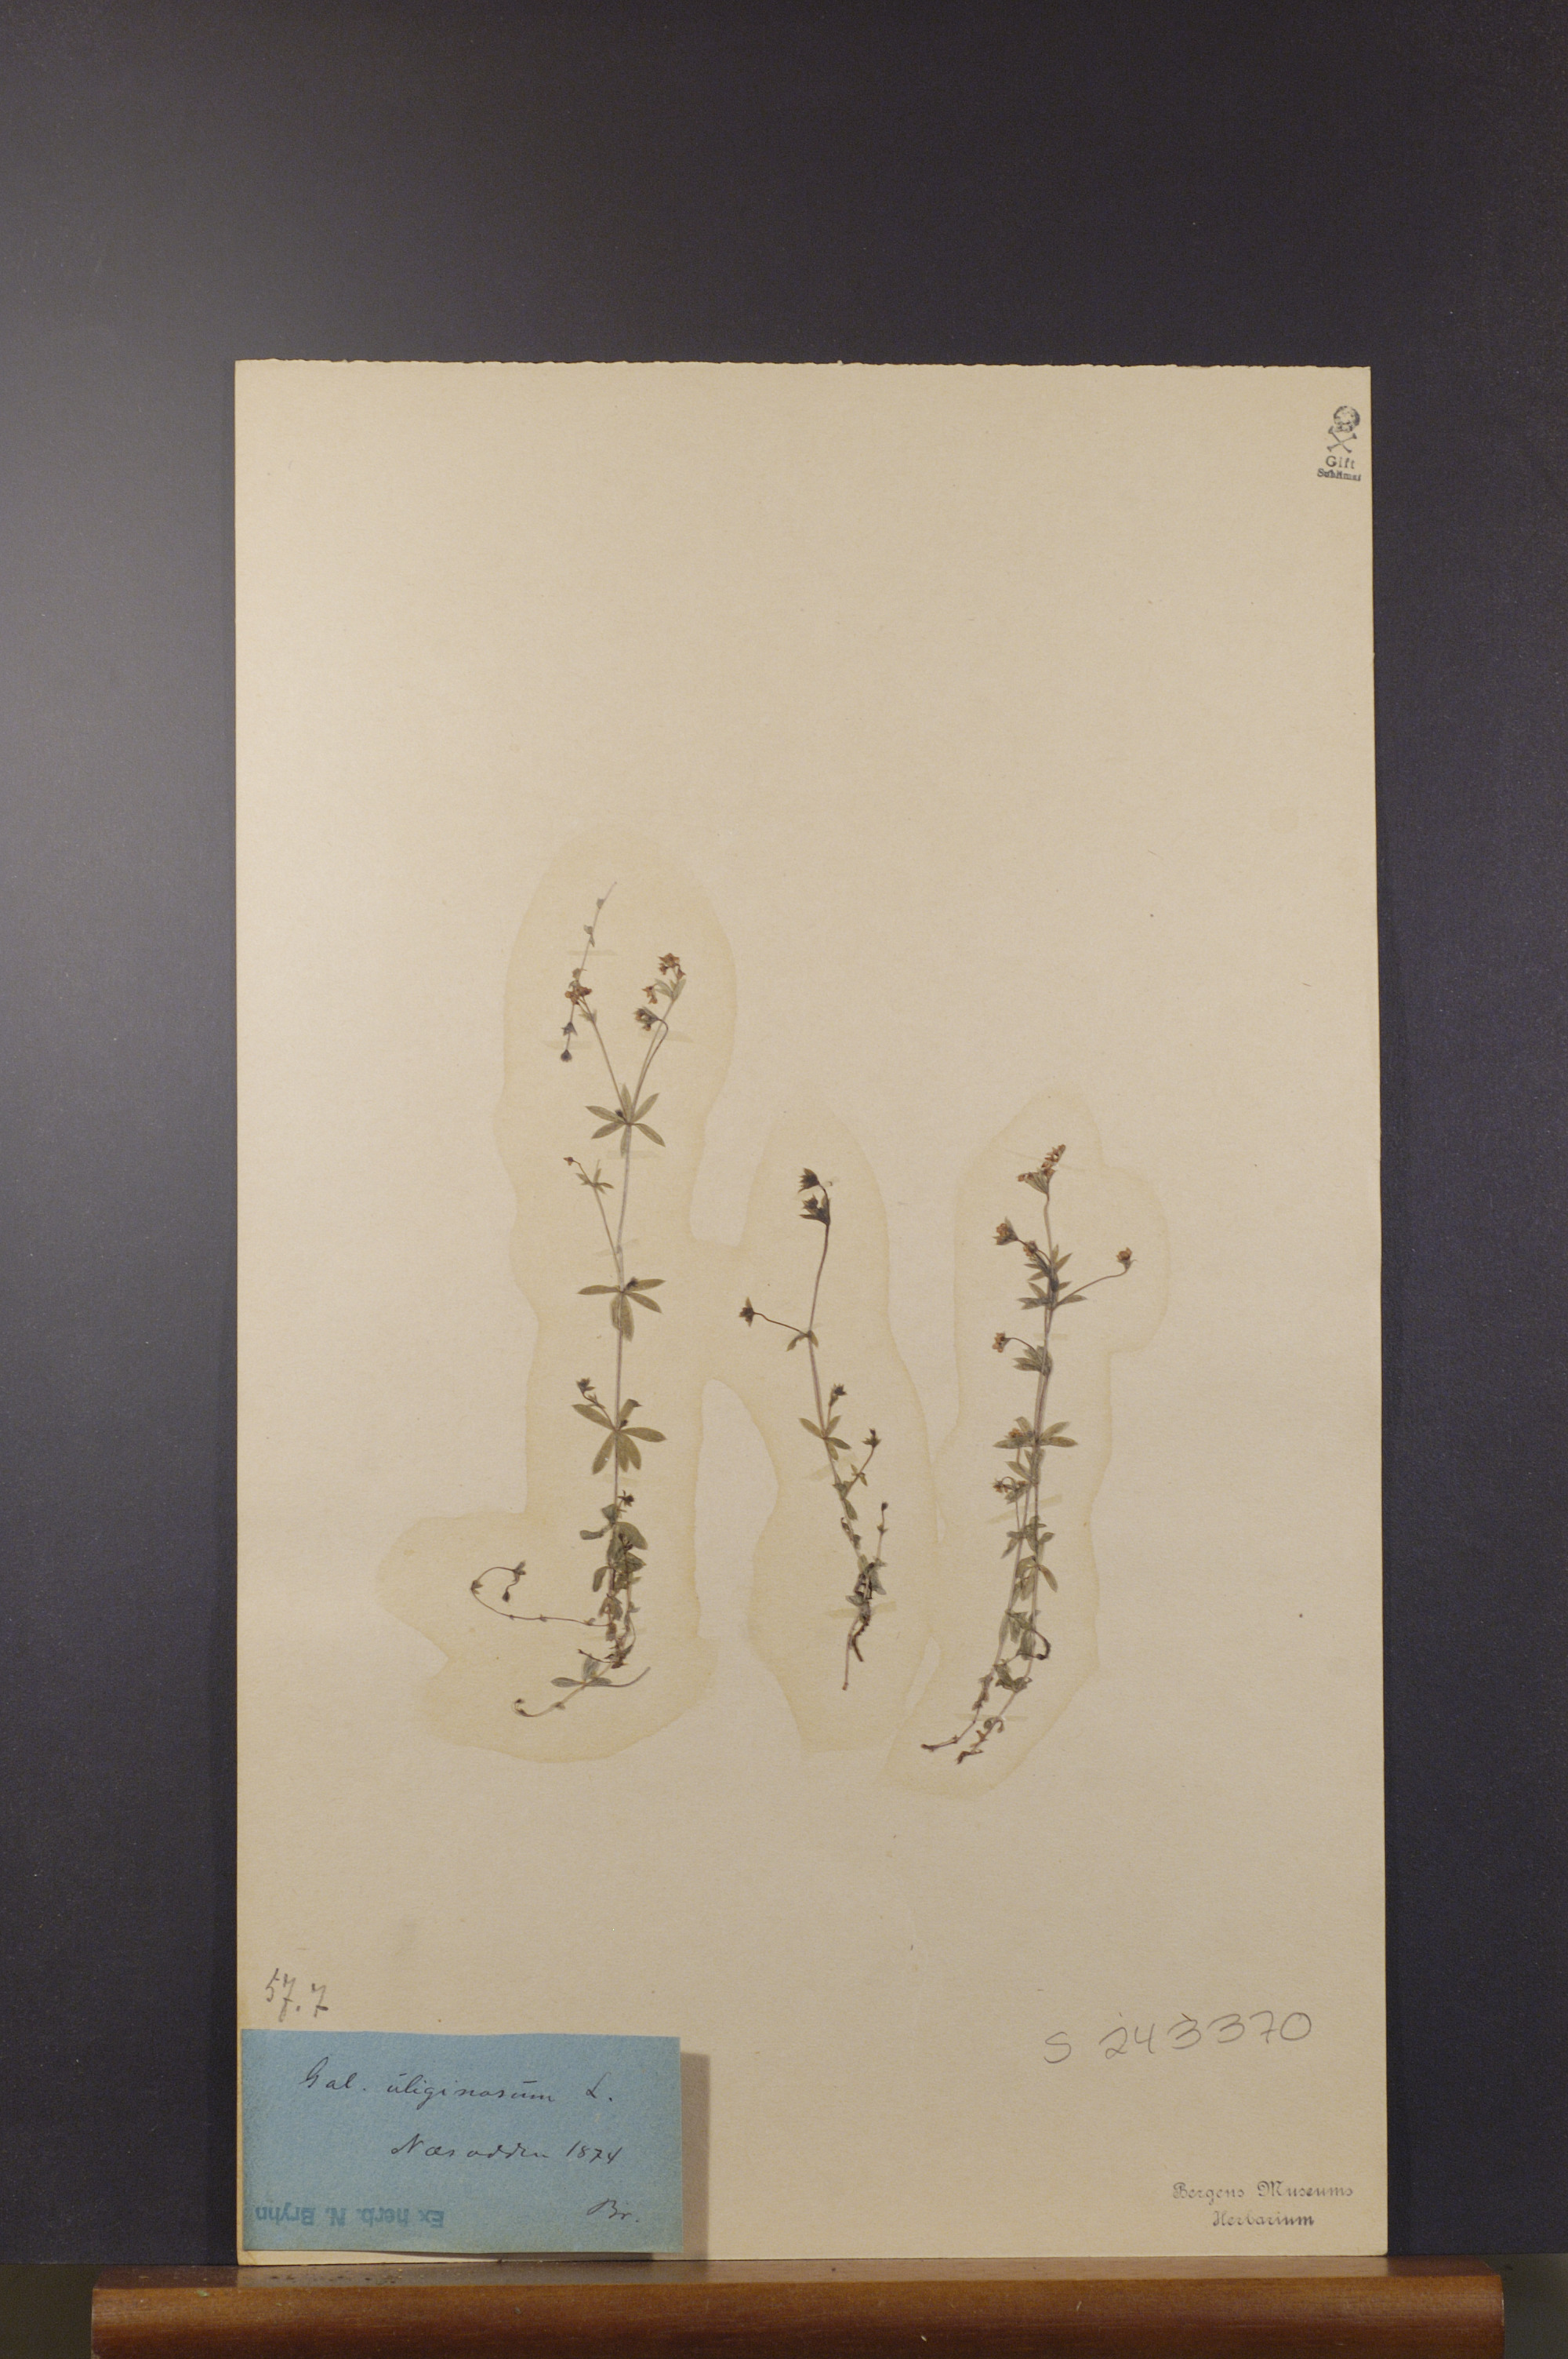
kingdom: Plantae
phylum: Tracheophyta
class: Magnoliopsida
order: Gentianales
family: Rubiaceae
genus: Galium
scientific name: Galium uliginosum
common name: Fen bedstraw
